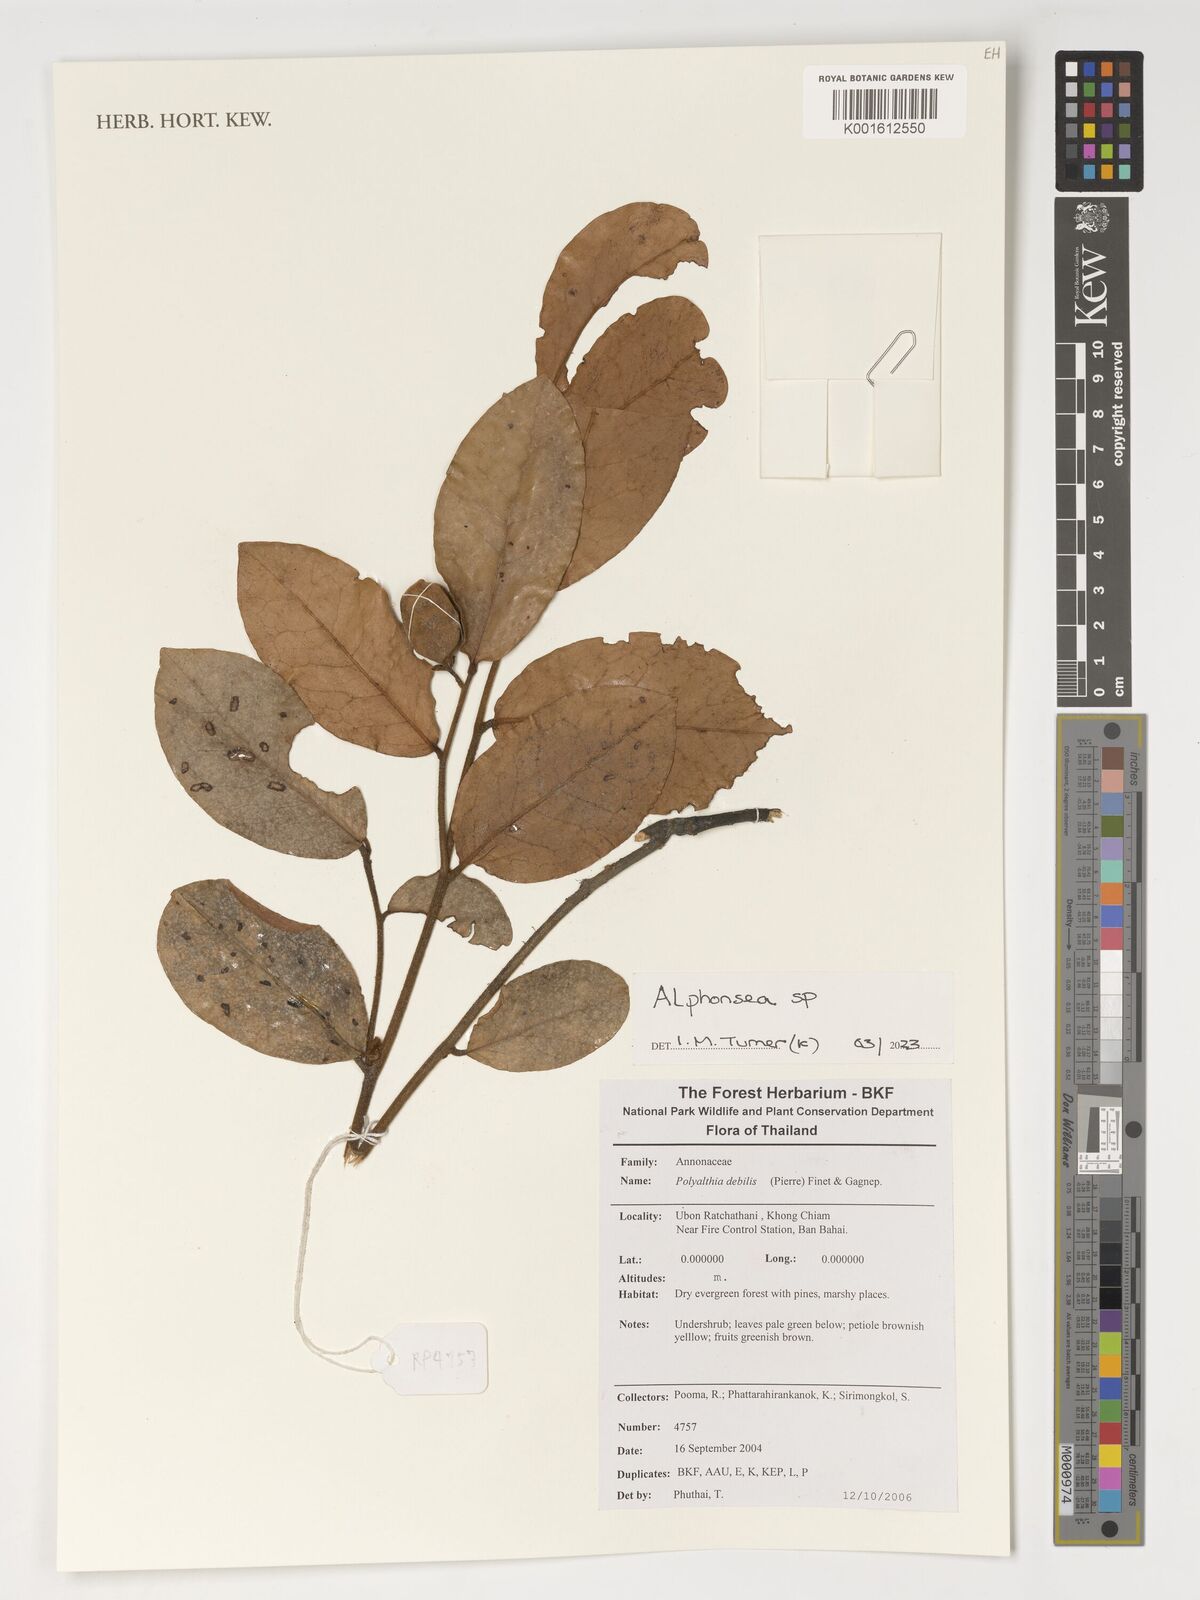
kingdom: Plantae
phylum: Tracheophyta
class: Magnoliopsida
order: Magnoliales
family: Annonaceae
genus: Alphonsea
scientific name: Alphonsea
